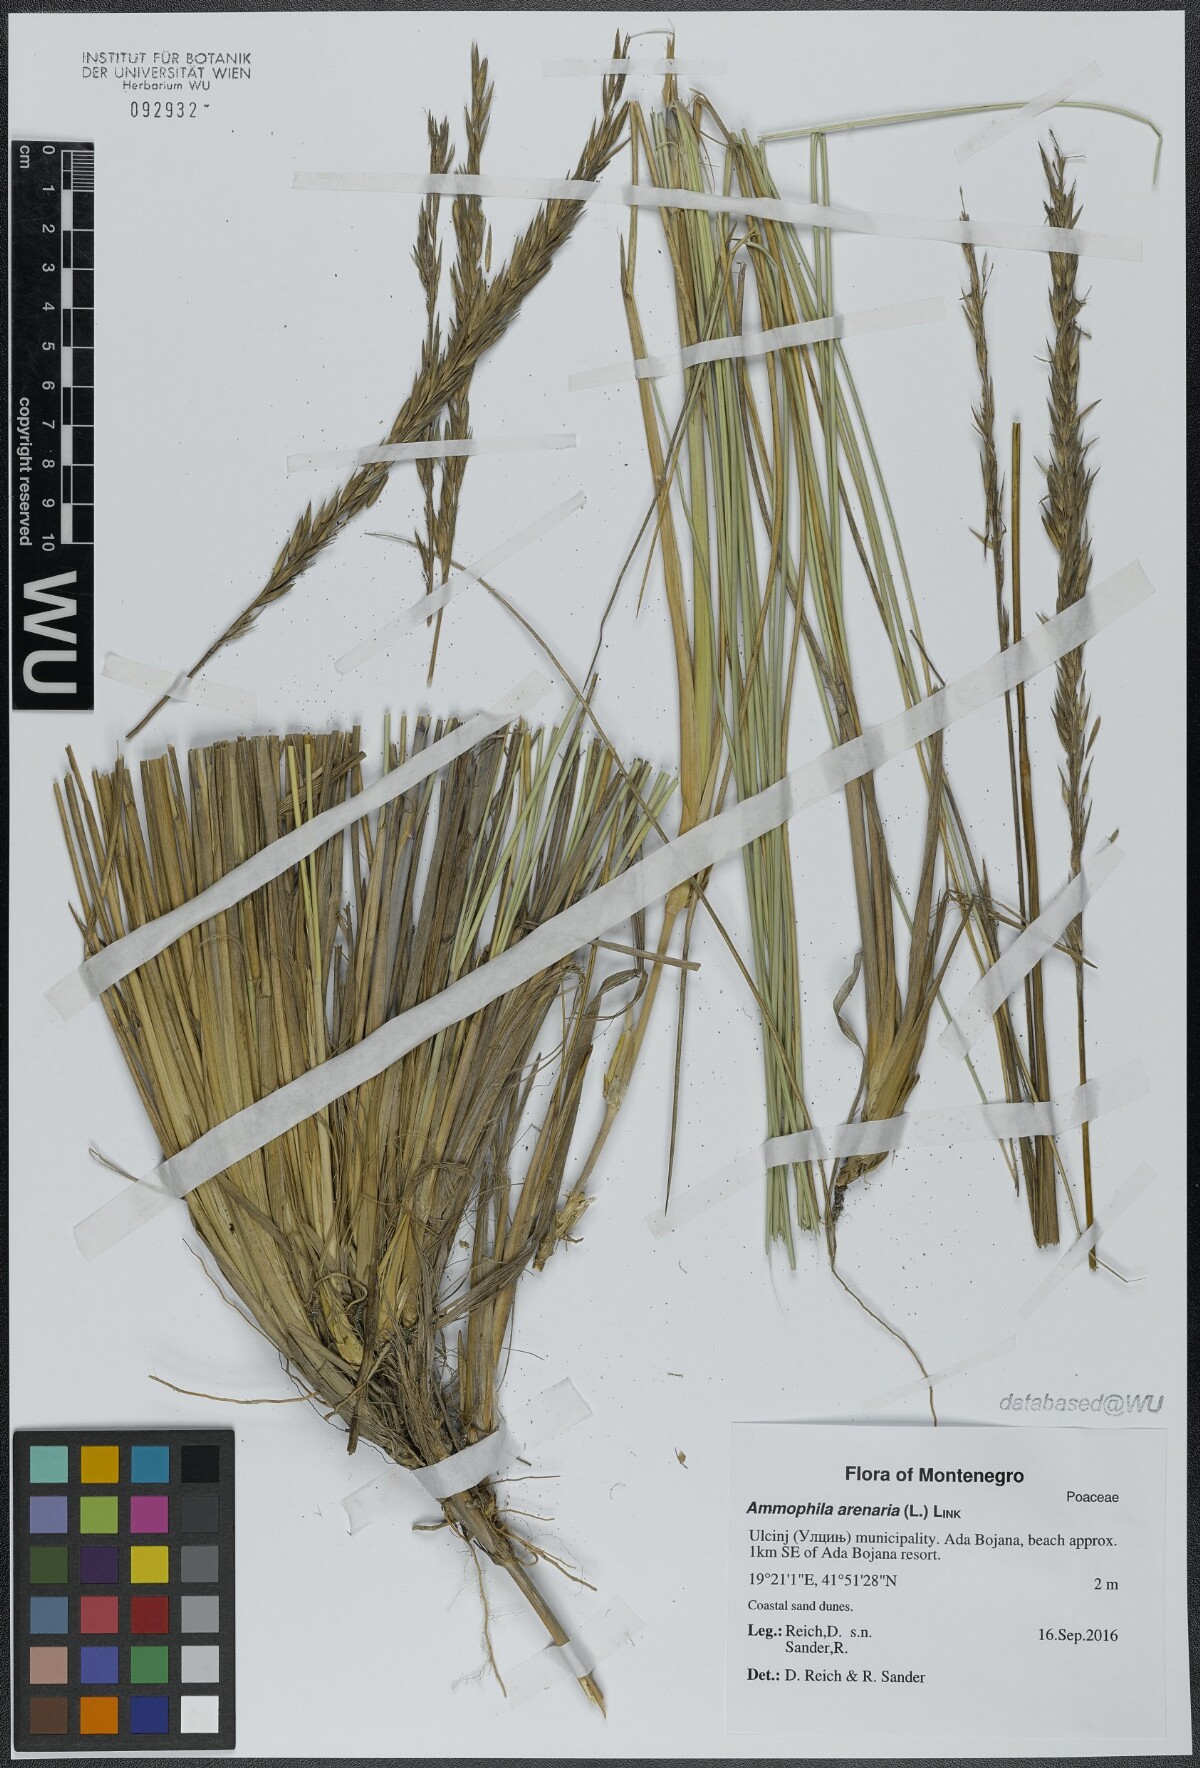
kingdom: Plantae
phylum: Tracheophyta
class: Liliopsida
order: Poales
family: Poaceae
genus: Calamagrostis
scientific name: Calamagrostis arenaria
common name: European beachgrass
